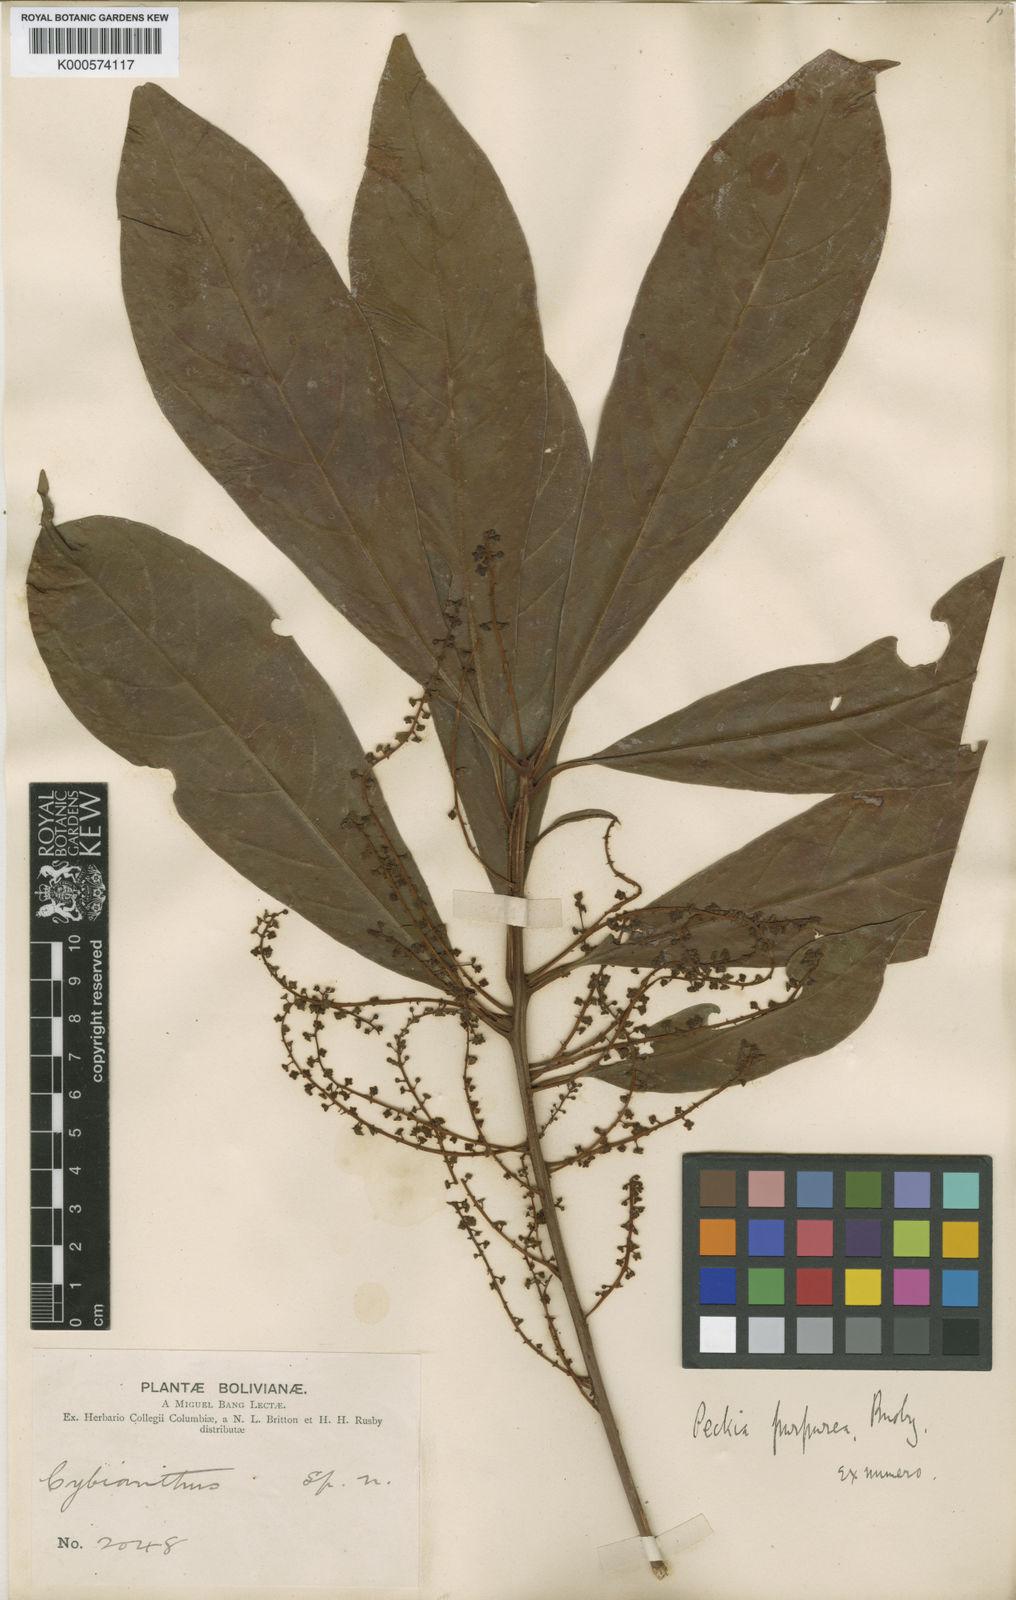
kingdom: Plantae
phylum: Tracheophyta
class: Magnoliopsida
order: Ericales
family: Primulaceae
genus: Cybianthus
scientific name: Cybianthus
